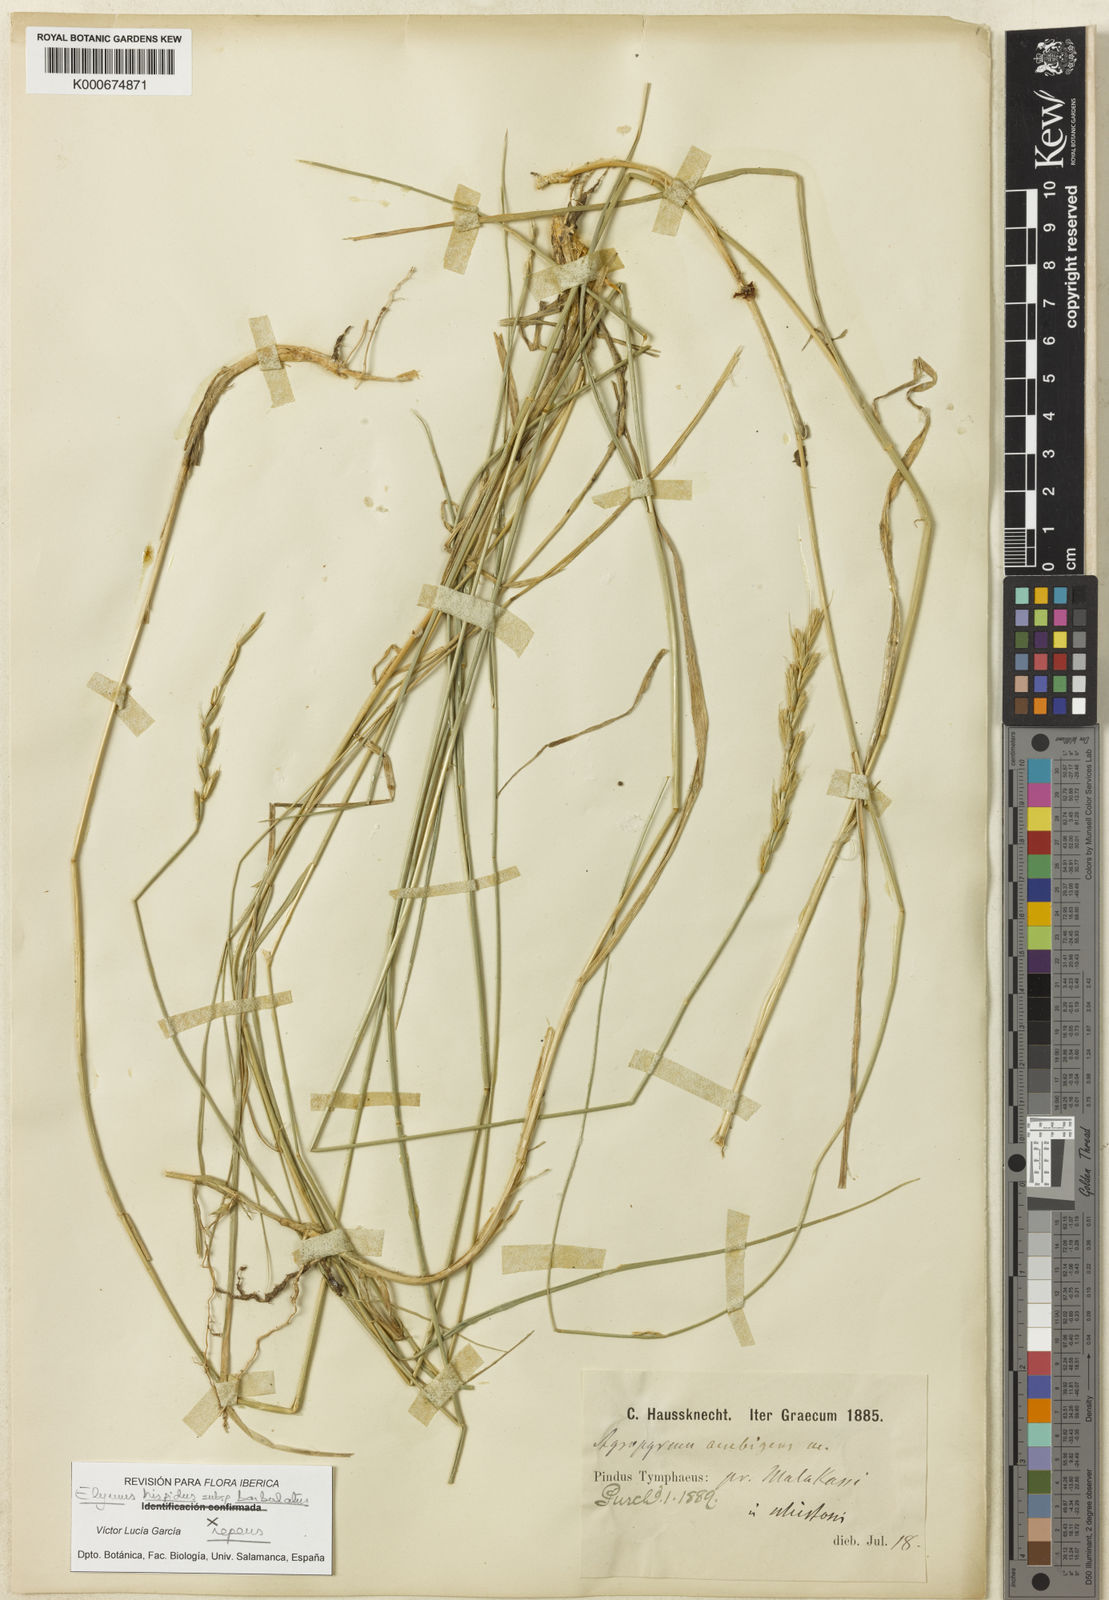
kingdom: Plantae
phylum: Tracheophyta
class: Liliopsida
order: Poales
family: Poaceae
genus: Thinopyrum
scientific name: Thinopyrum intermedium
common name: Intermediate wheatgrass
